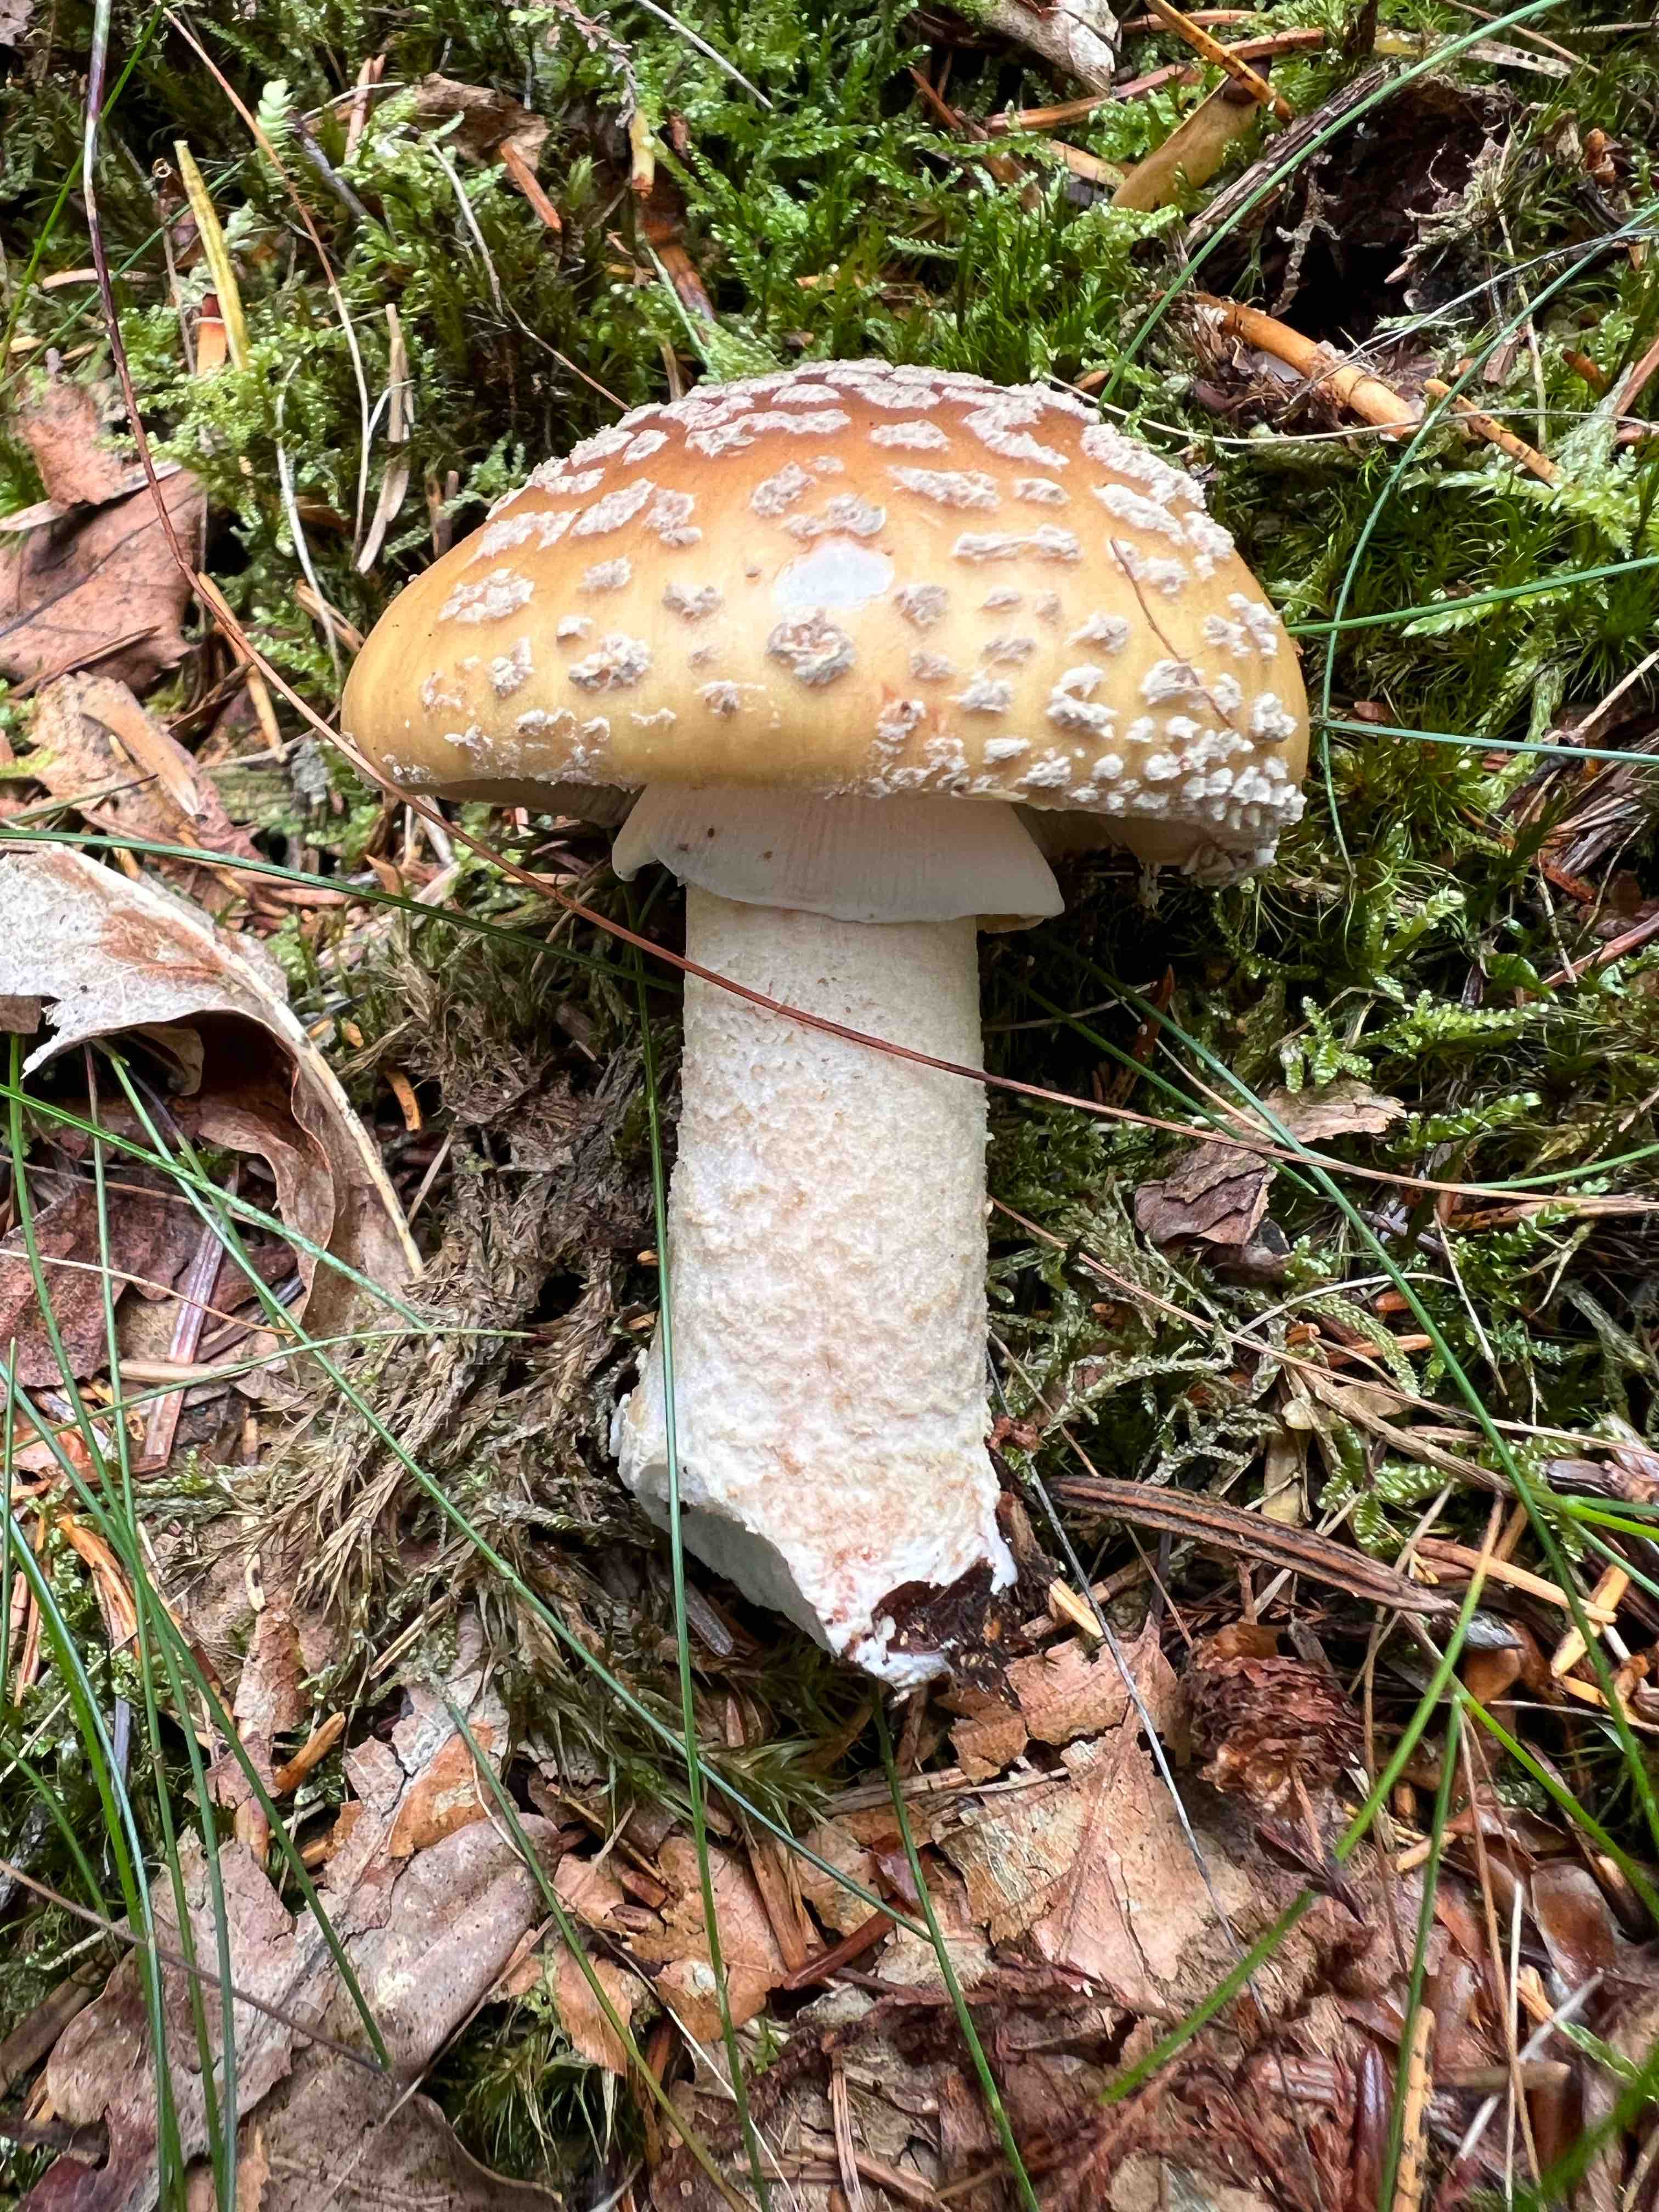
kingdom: Fungi
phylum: Basidiomycota
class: Agaricomycetes
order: Agaricales
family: Amanitaceae
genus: Amanita
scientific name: Amanita rubescens
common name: rødmende fluesvamp
